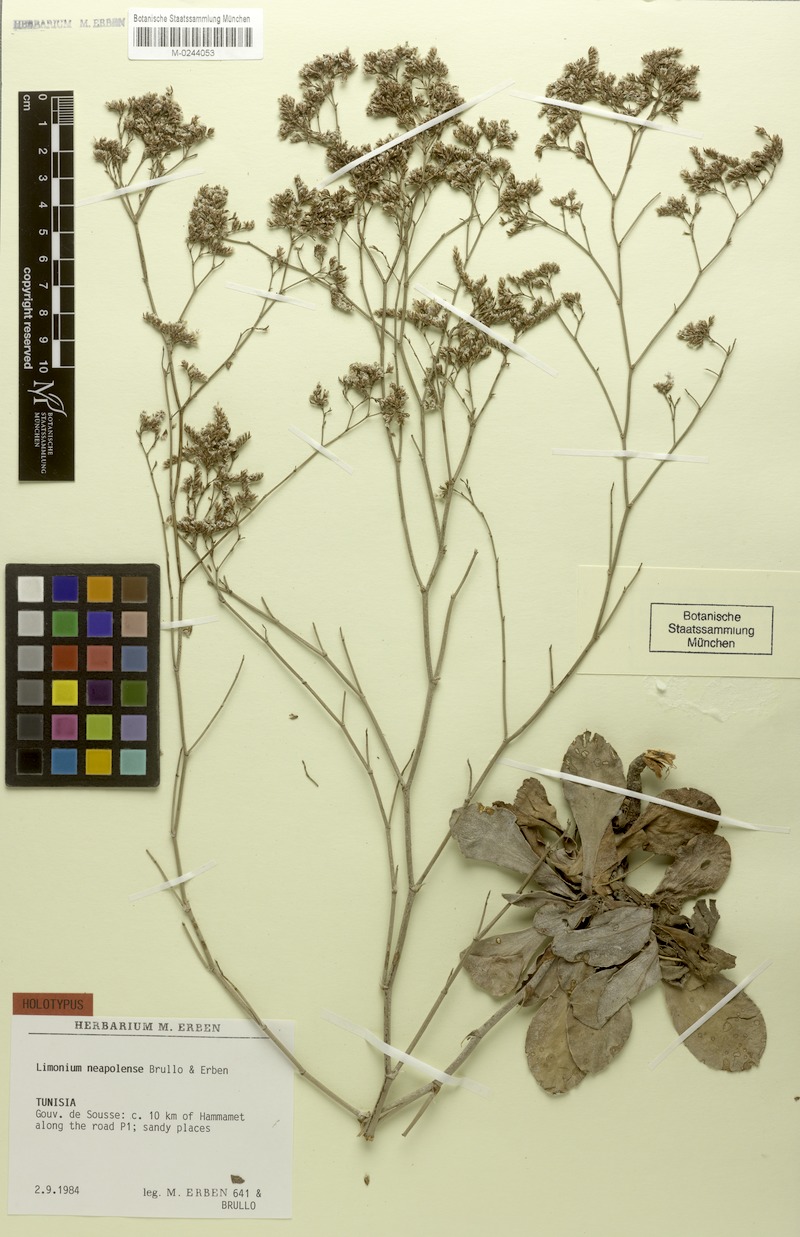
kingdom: Plantae
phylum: Tracheophyta
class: Magnoliopsida
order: Caryophyllales
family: Plumbaginaceae
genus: Limonium
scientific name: Limonium neapolense
